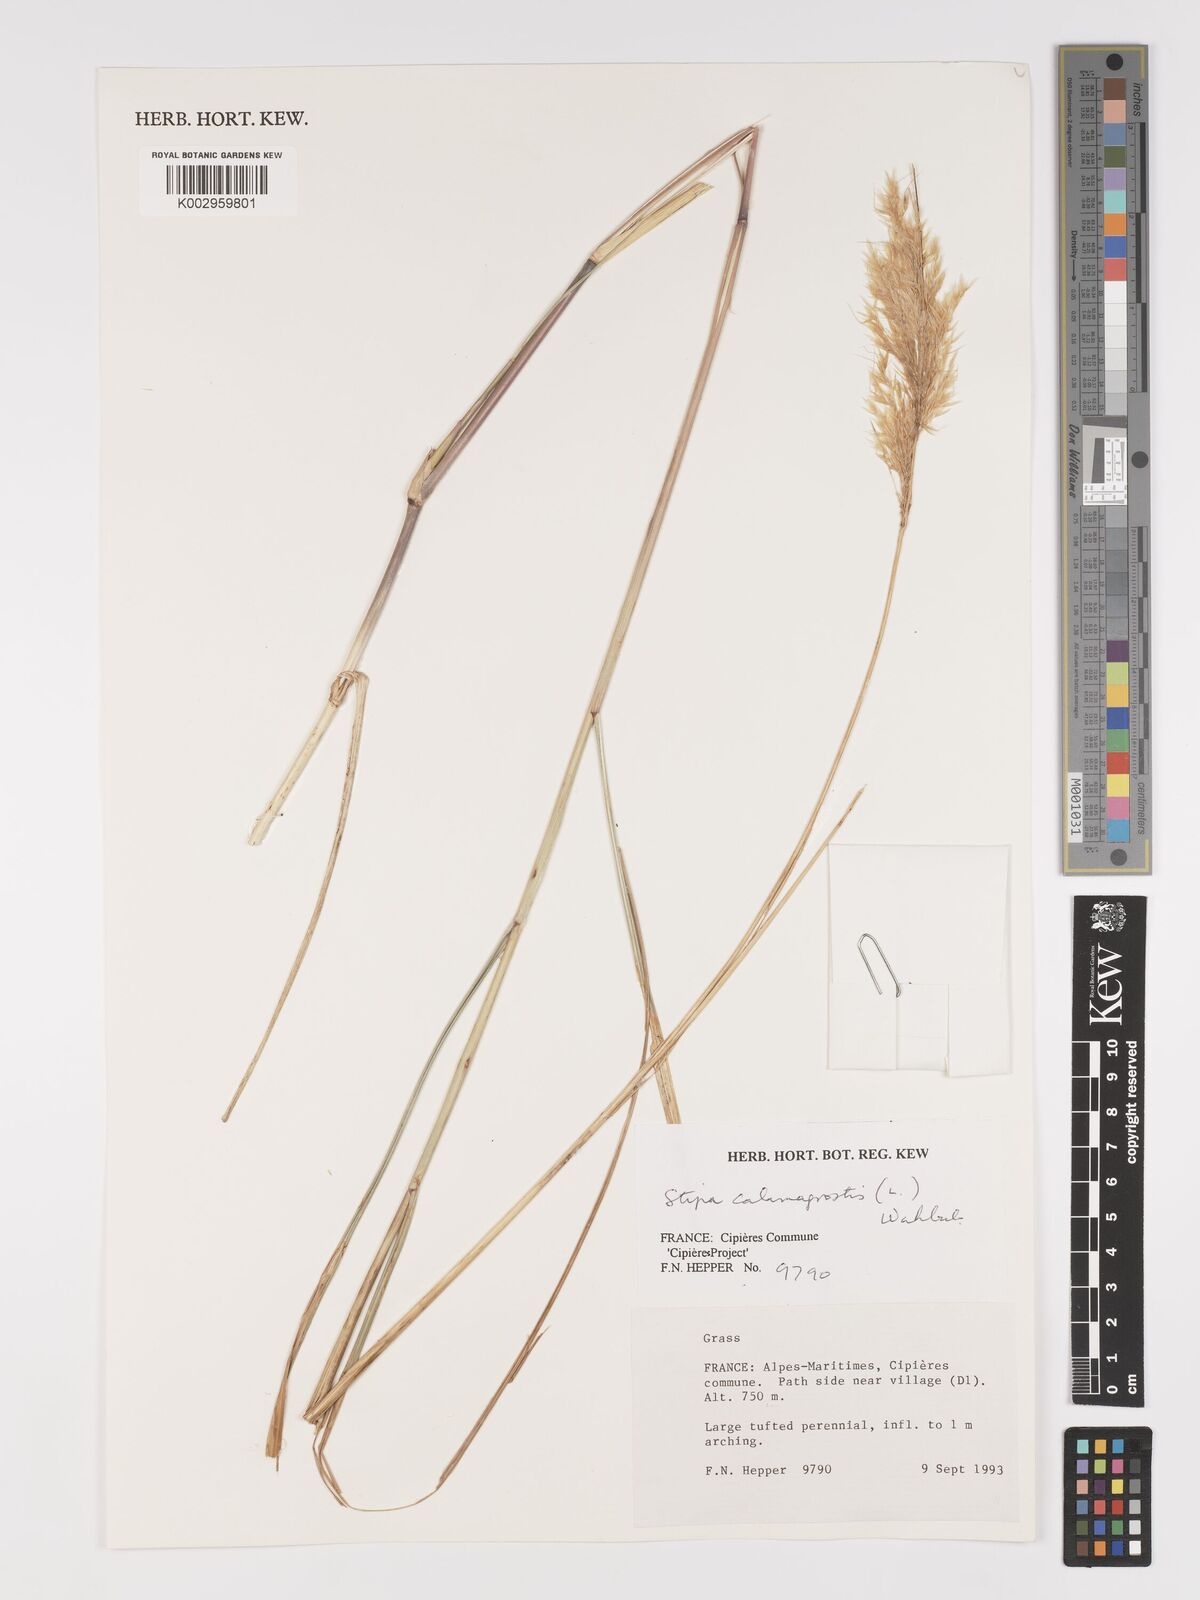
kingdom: Plantae
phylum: Tracheophyta
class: Liliopsida
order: Poales
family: Poaceae
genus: Achnatherum
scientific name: Achnatherum calamagrostis
